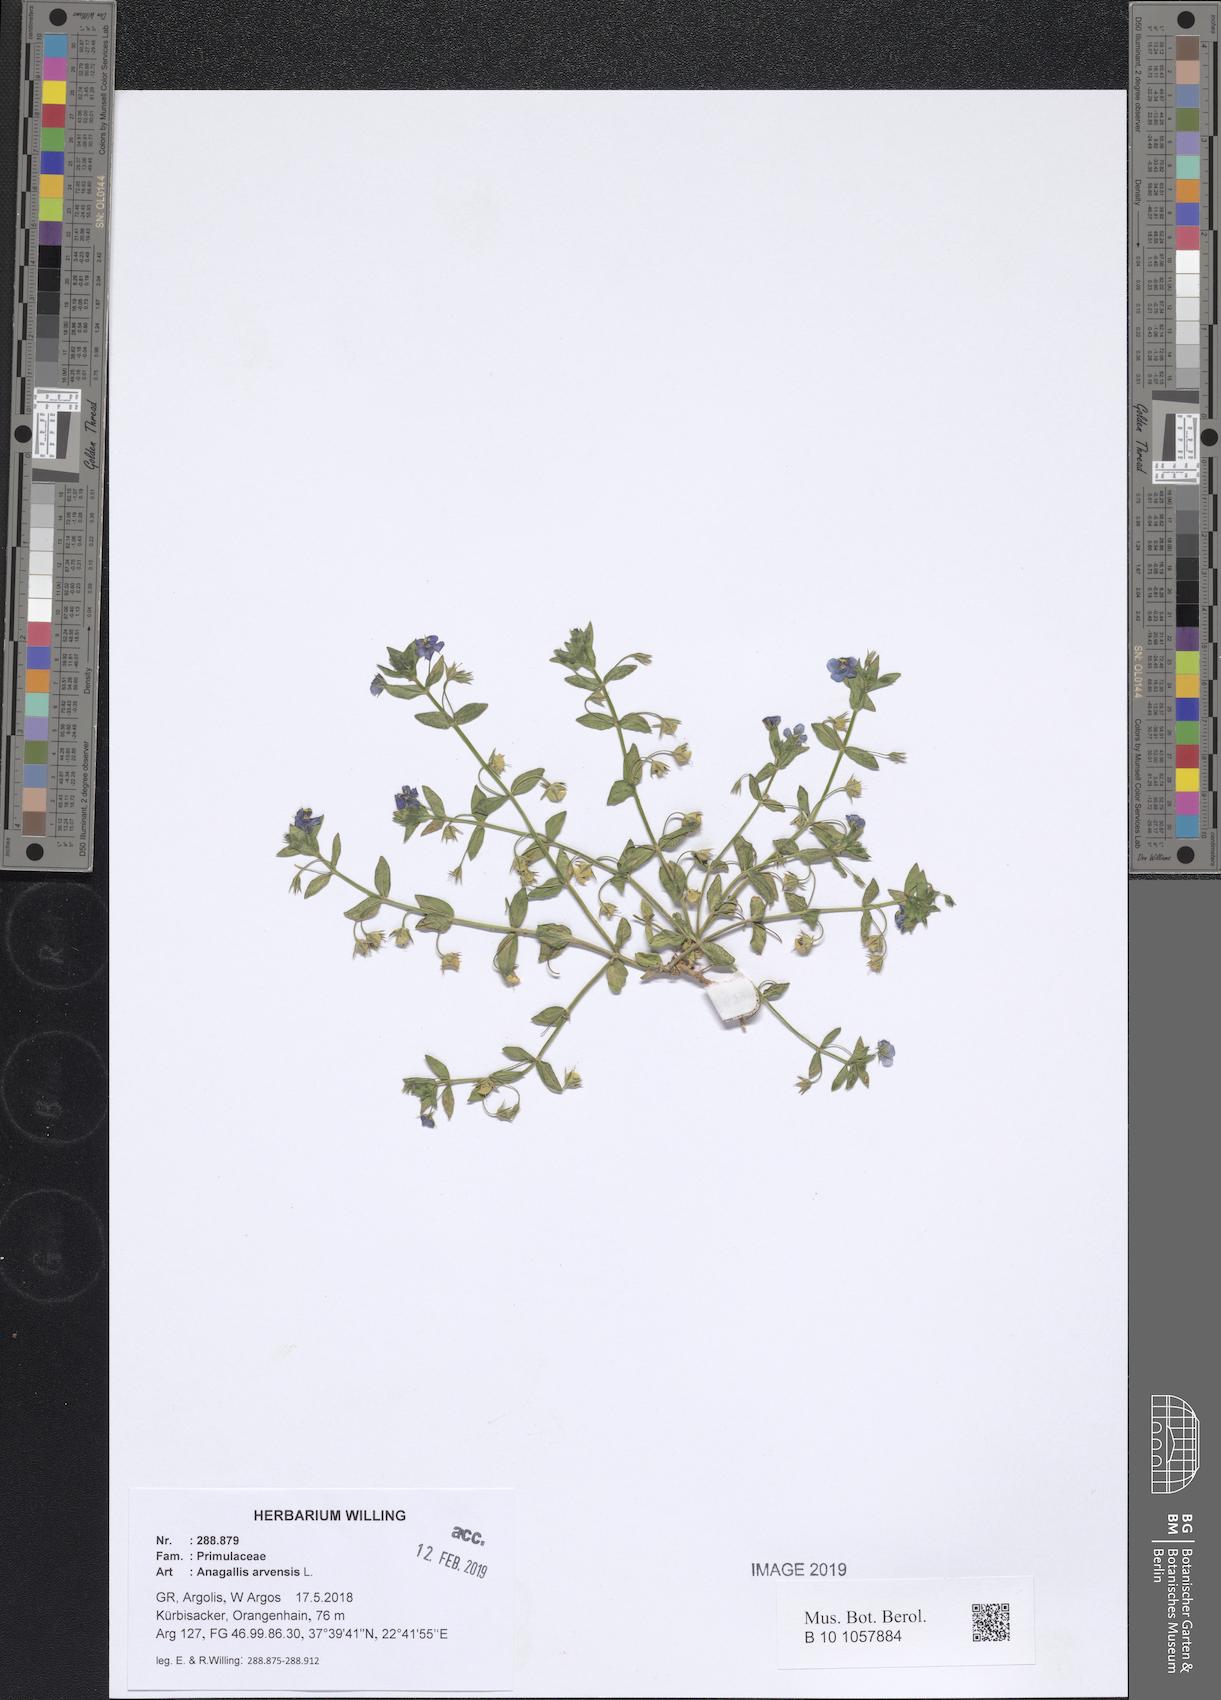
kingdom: Plantae
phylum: Tracheophyta
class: Magnoliopsida
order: Ericales
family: Primulaceae
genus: Lysimachia
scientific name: Lysimachia arvensis
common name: Scarlet pimpernel
